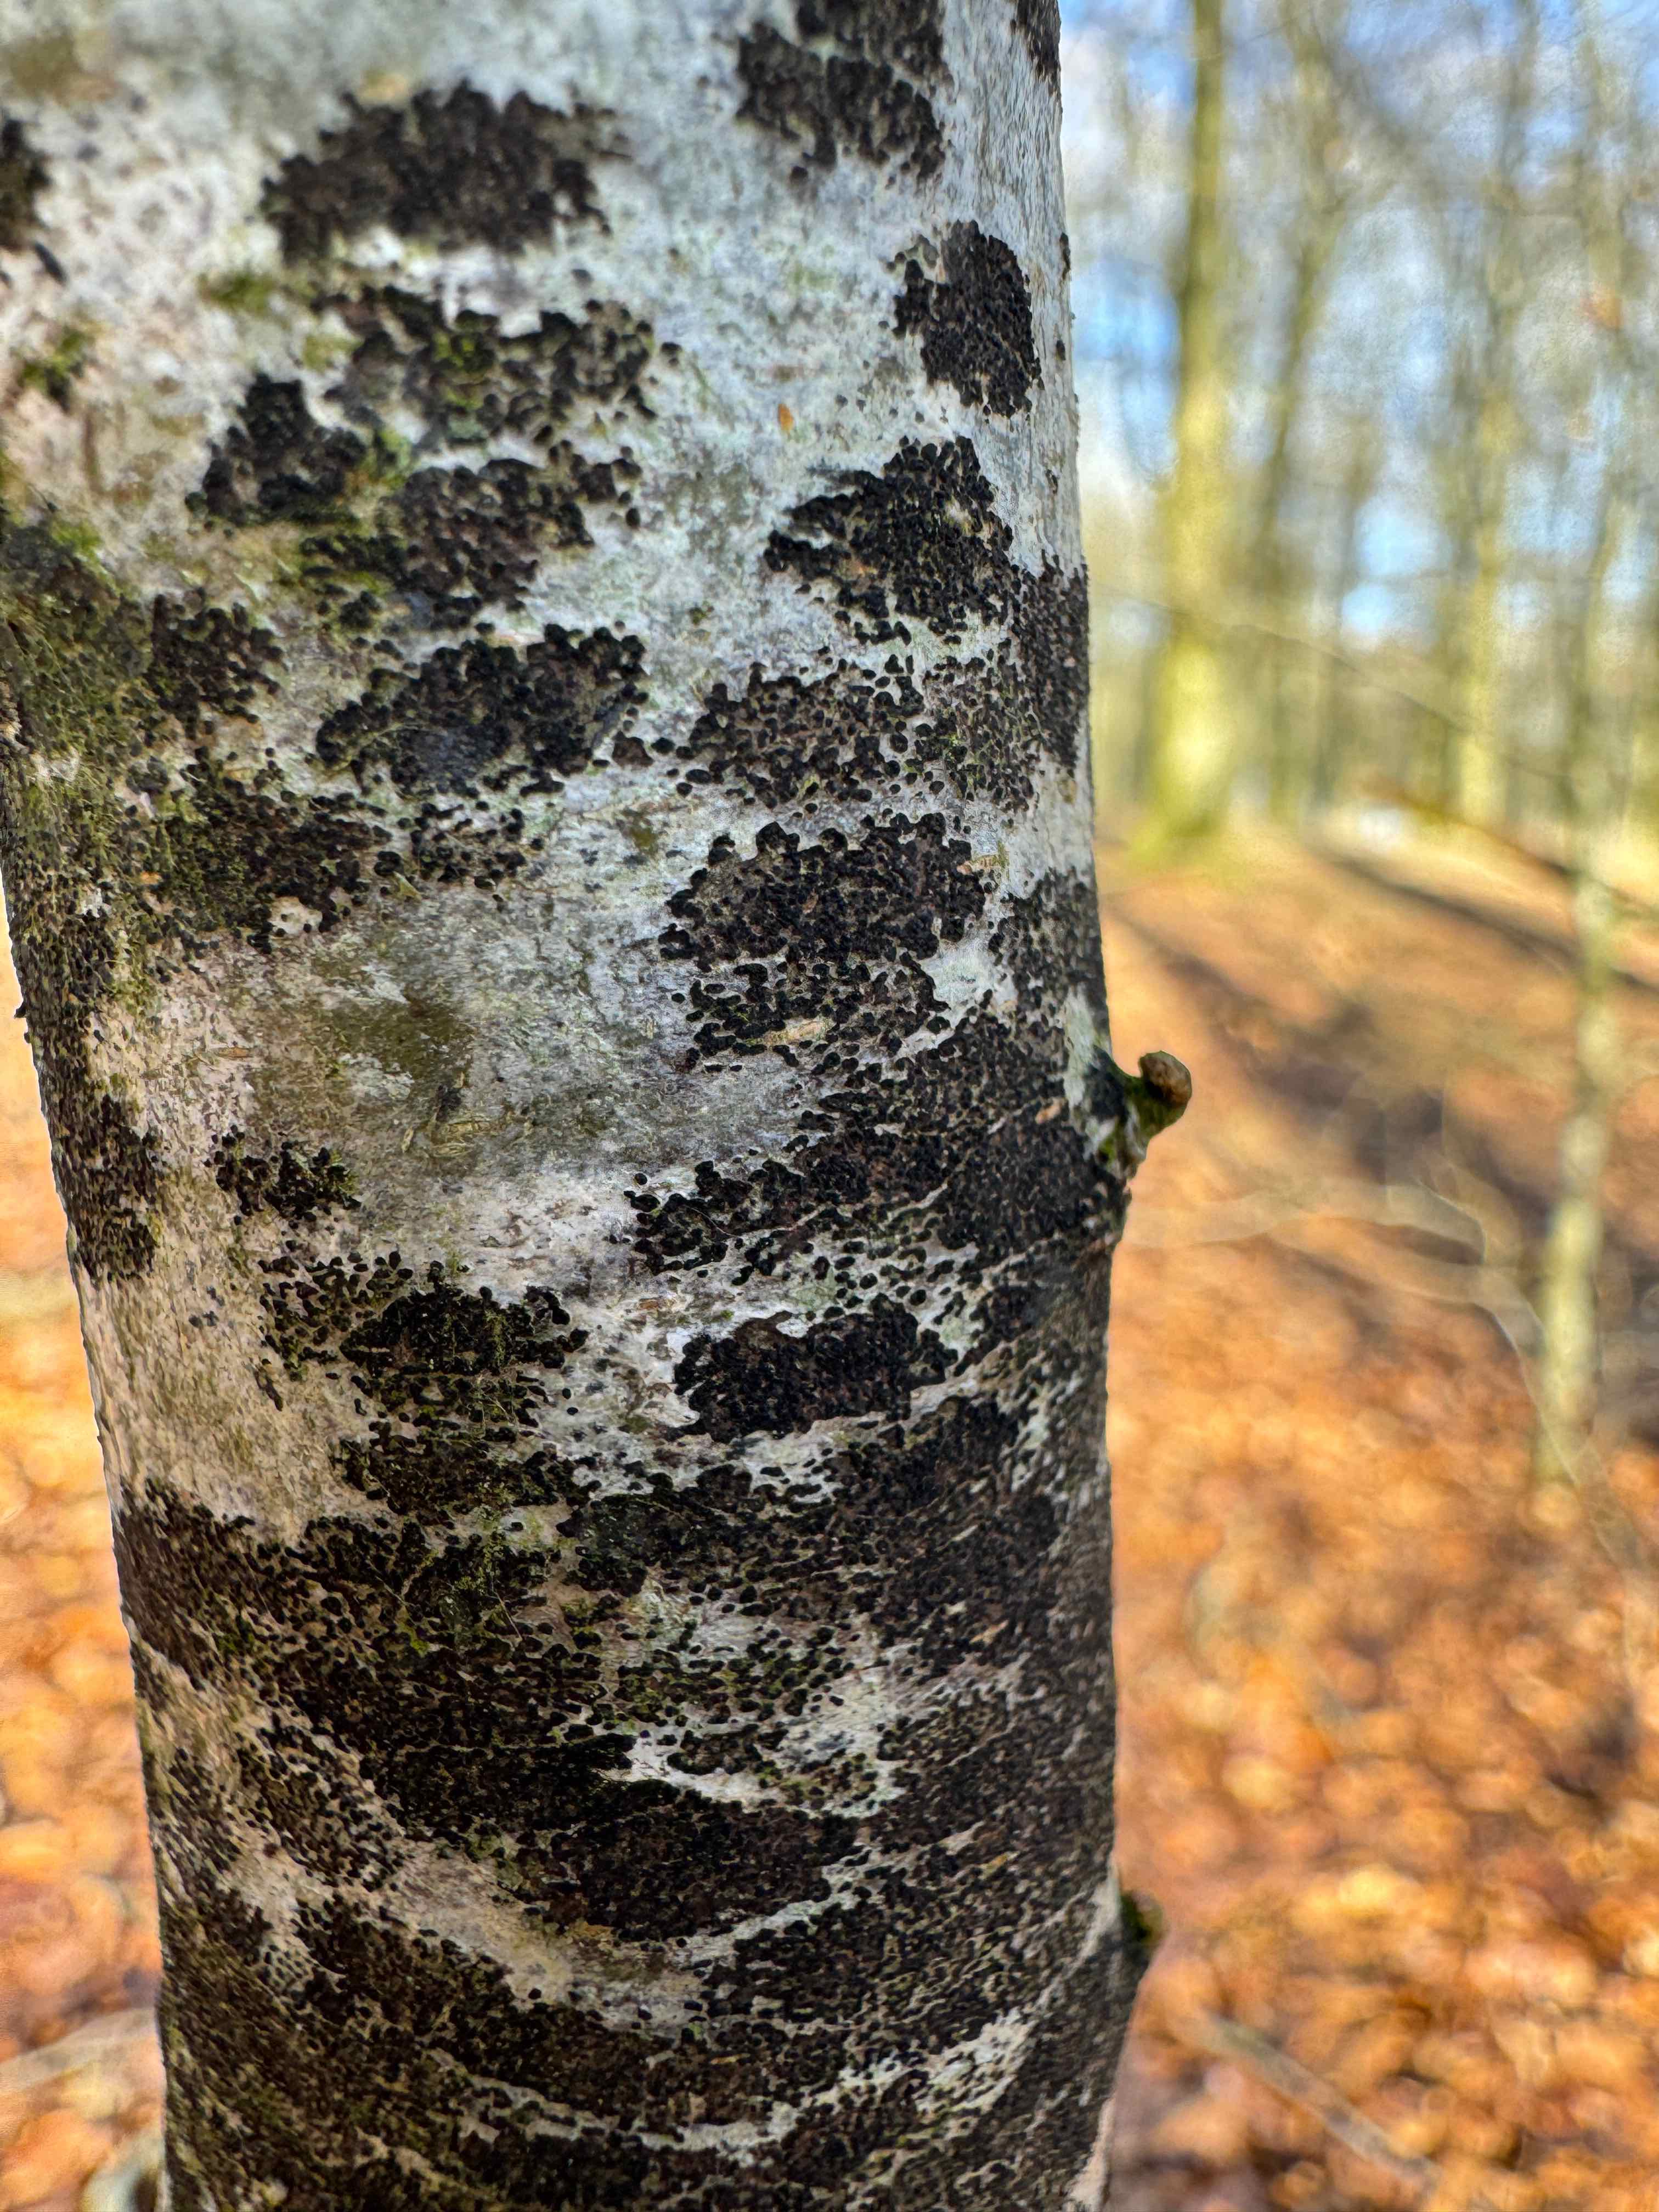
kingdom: Fungi
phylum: Ascomycota
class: Leotiomycetes
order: Rhytismatales
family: Ascodichaenaceae
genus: Ascodichaena
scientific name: Ascodichaena rugosa
